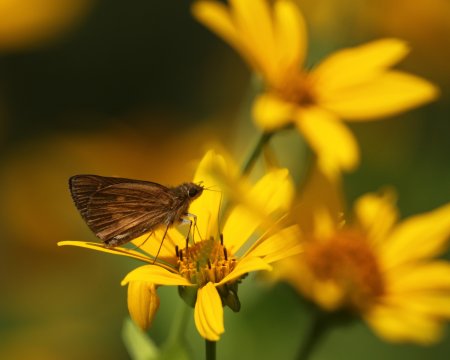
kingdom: Animalia
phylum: Arthropoda
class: Insecta
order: Lepidoptera
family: Hesperiidae
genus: Poanes
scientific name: Poanes viator
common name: Broad-winged Skipper
